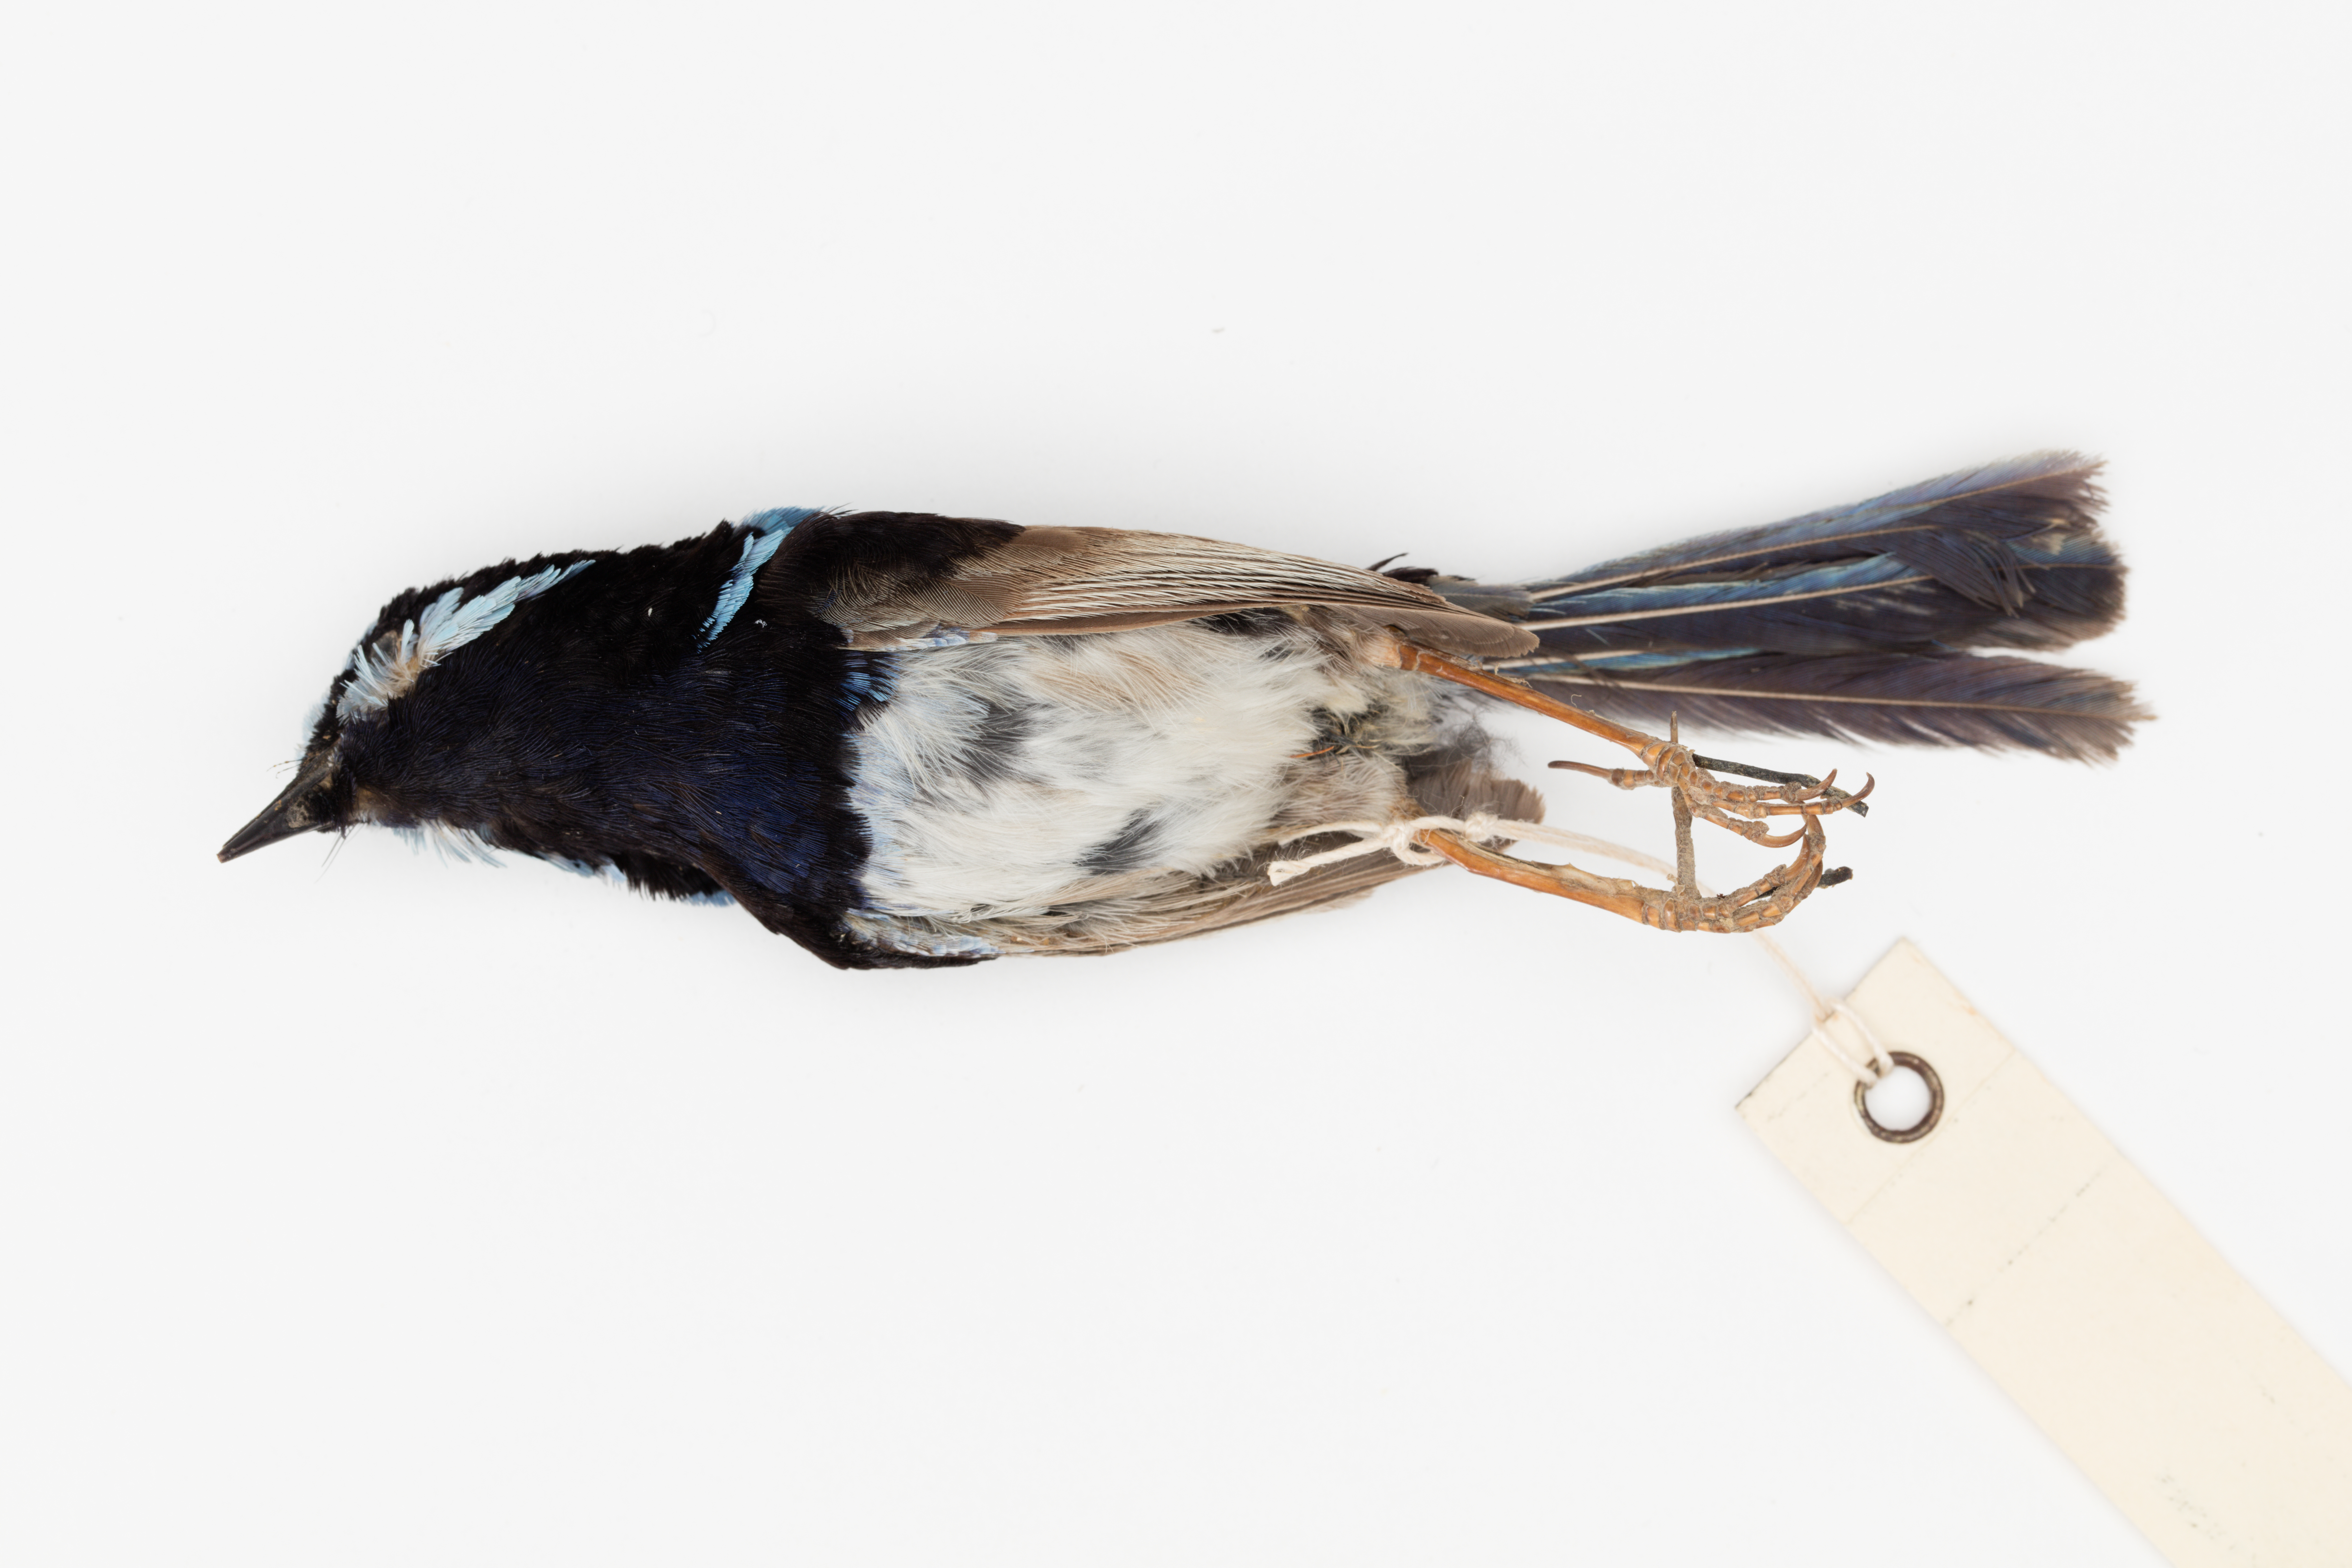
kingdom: Animalia
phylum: Chordata
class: Aves
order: Passeriformes
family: Maluridae
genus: Malurus
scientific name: Malurus cyaneus
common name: Superb fairywren
